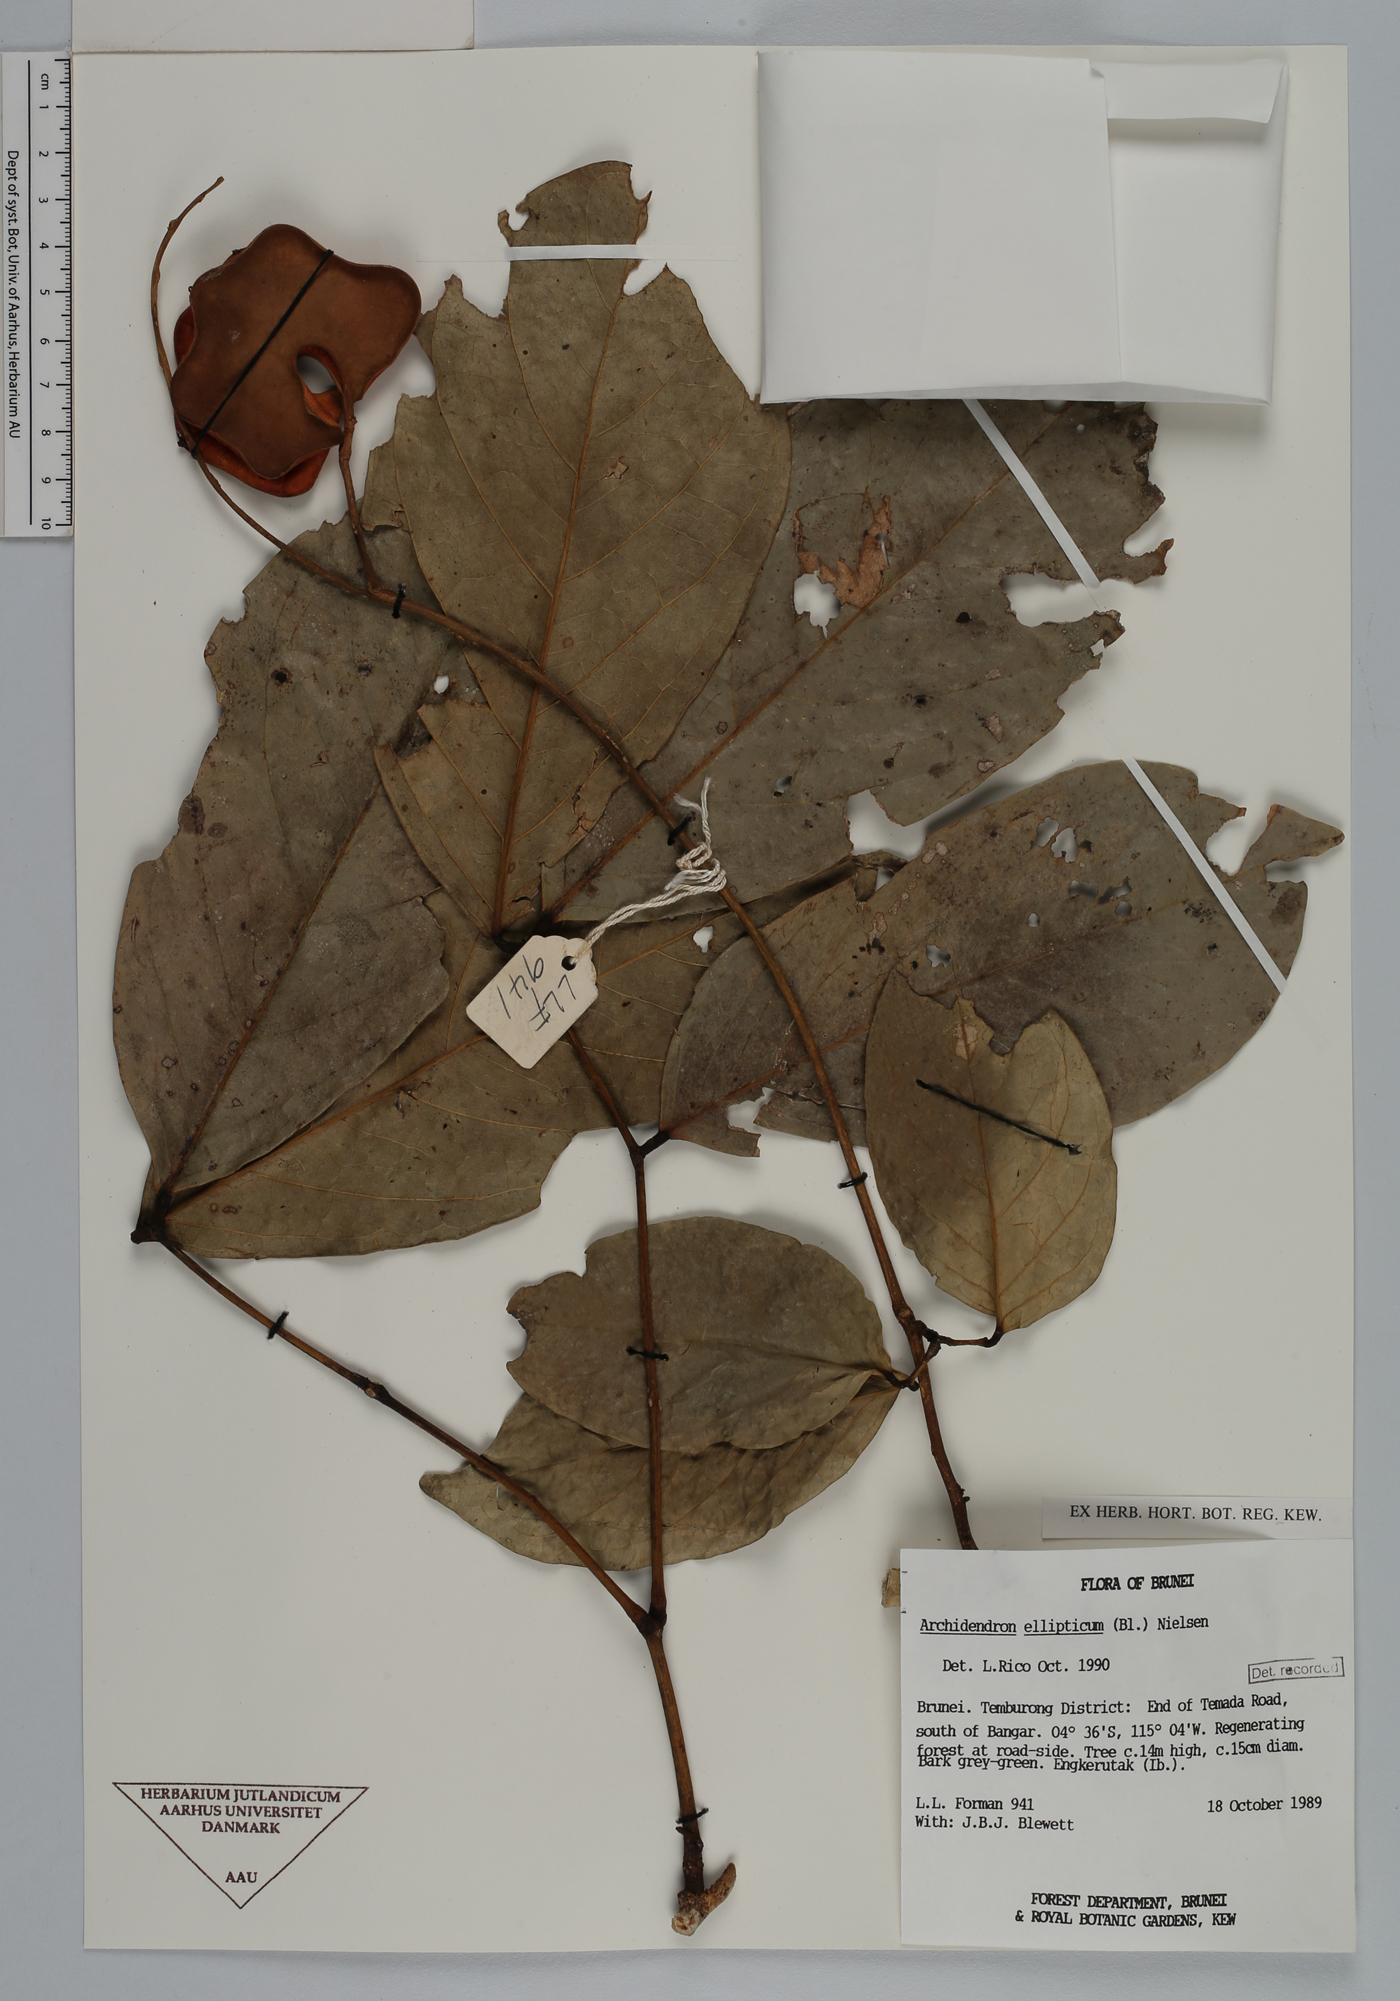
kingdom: Plantae
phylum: Tracheophyta
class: Magnoliopsida
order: Fabales
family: Fabaceae
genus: Archidendron
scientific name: Archidendron ellipticum
